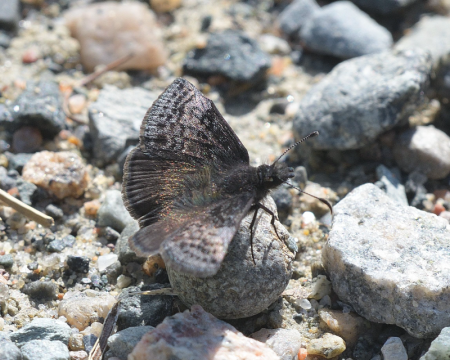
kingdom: Animalia
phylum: Arthropoda
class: Insecta
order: Lepidoptera
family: Hesperiidae
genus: Erynnis
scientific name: Erynnis icelus
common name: Dreamy Duskywing
